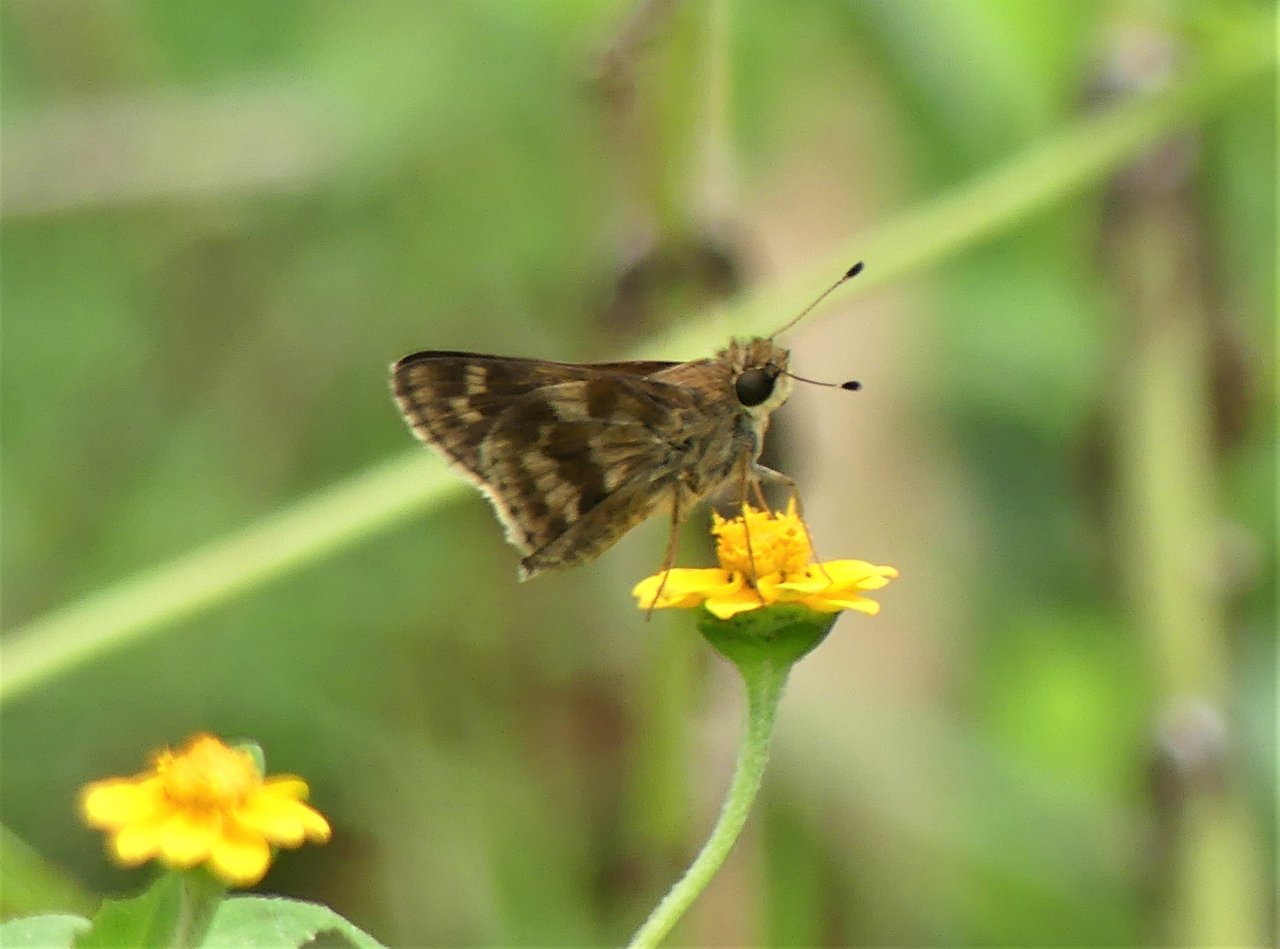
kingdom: Animalia
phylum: Arthropoda
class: Insecta
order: Lepidoptera
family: Hesperiidae
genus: Pompeius
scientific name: Pompeius pompeius
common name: Pompeius Skipper
